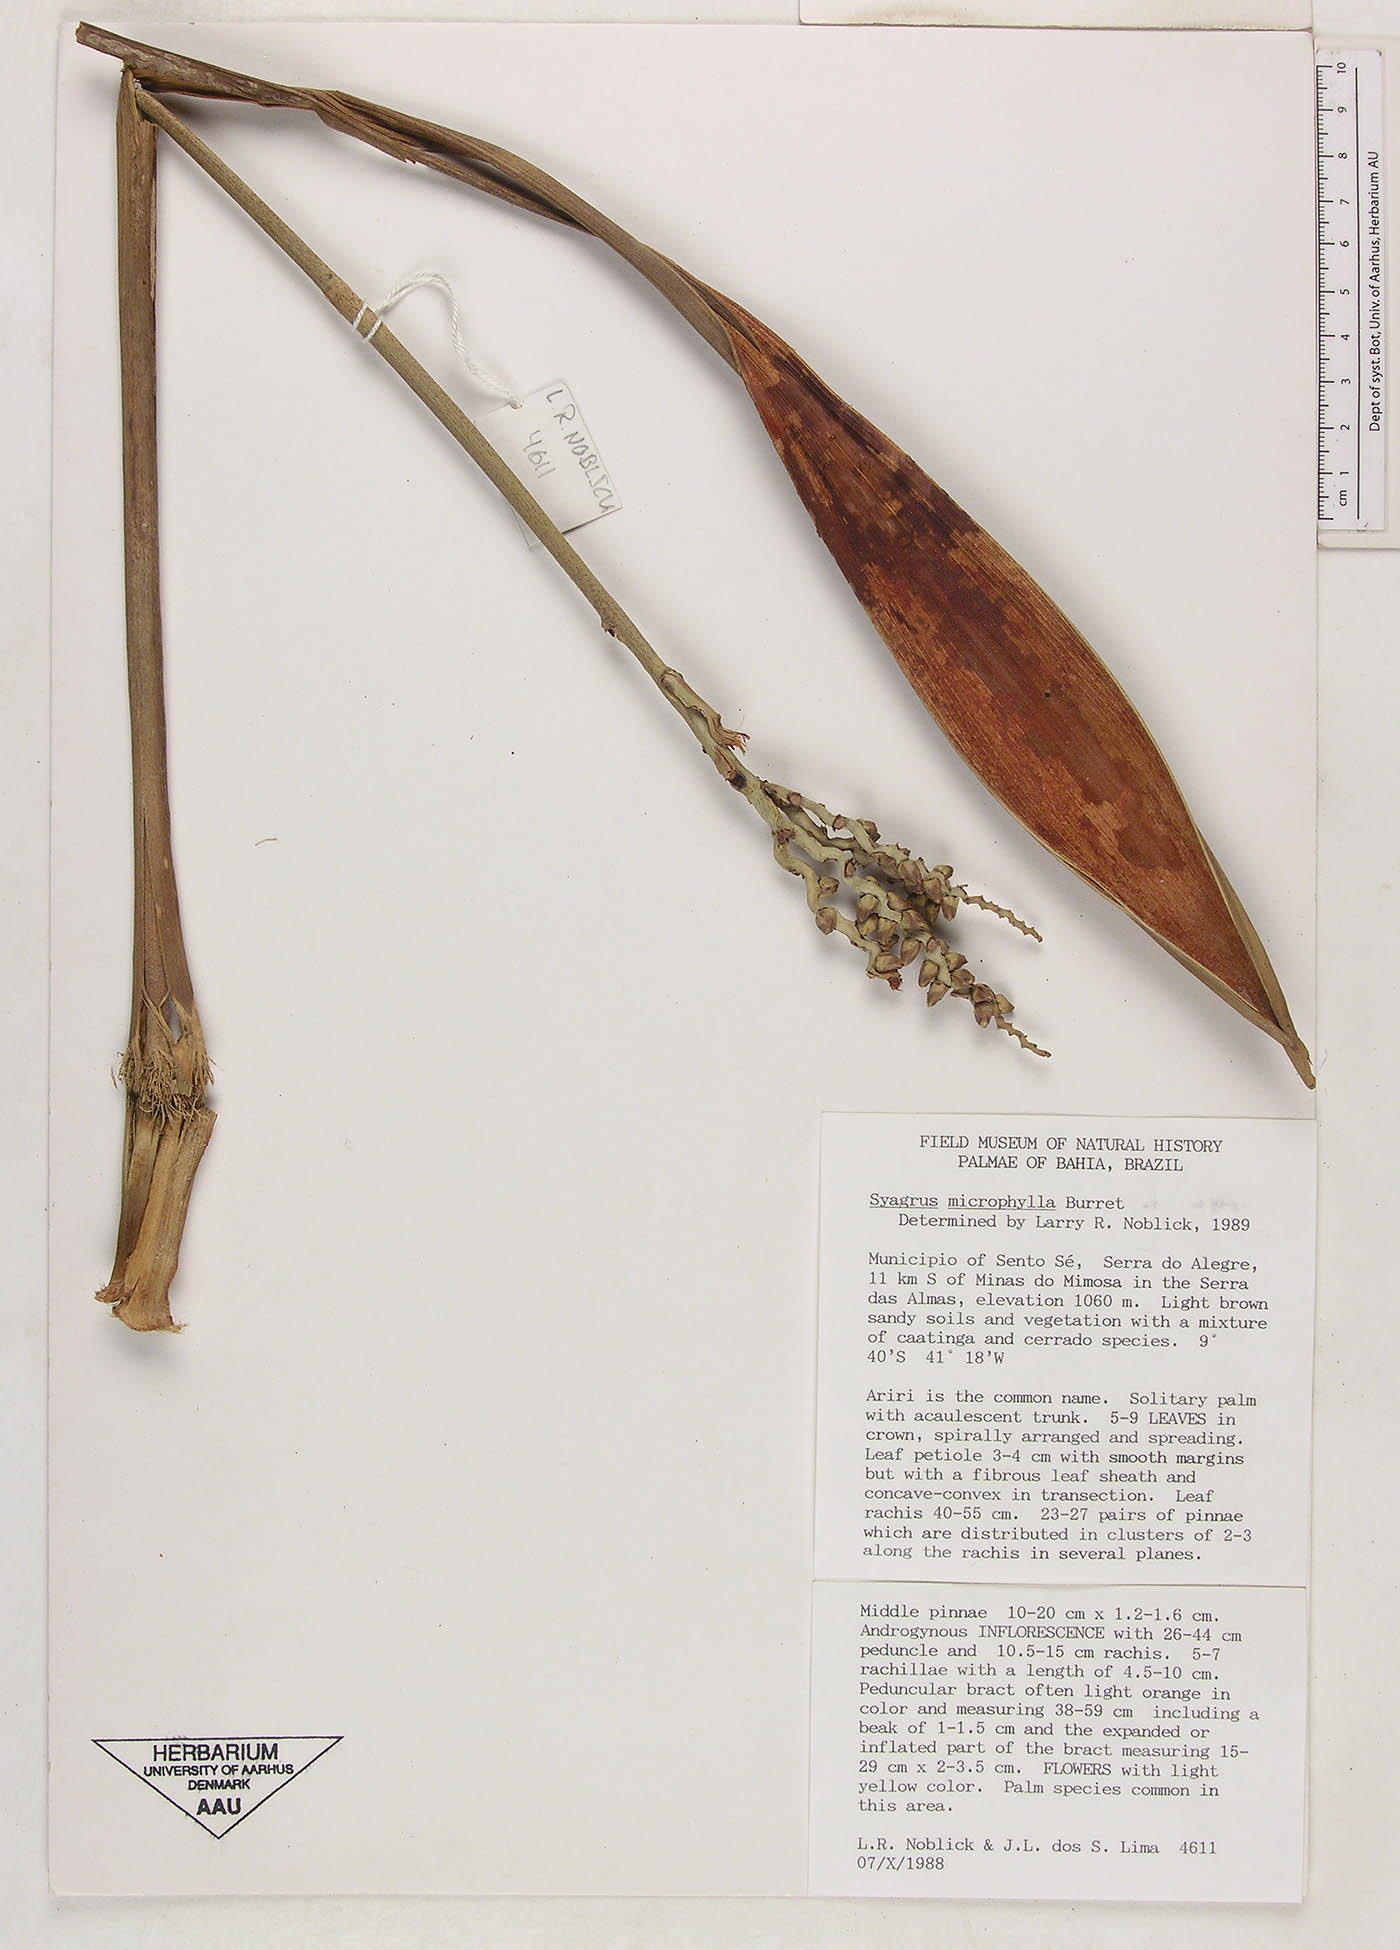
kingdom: Plantae
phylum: Tracheophyta
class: Liliopsida
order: Arecales
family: Arecaceae
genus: Syagrus
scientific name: Syagrus microphylla
